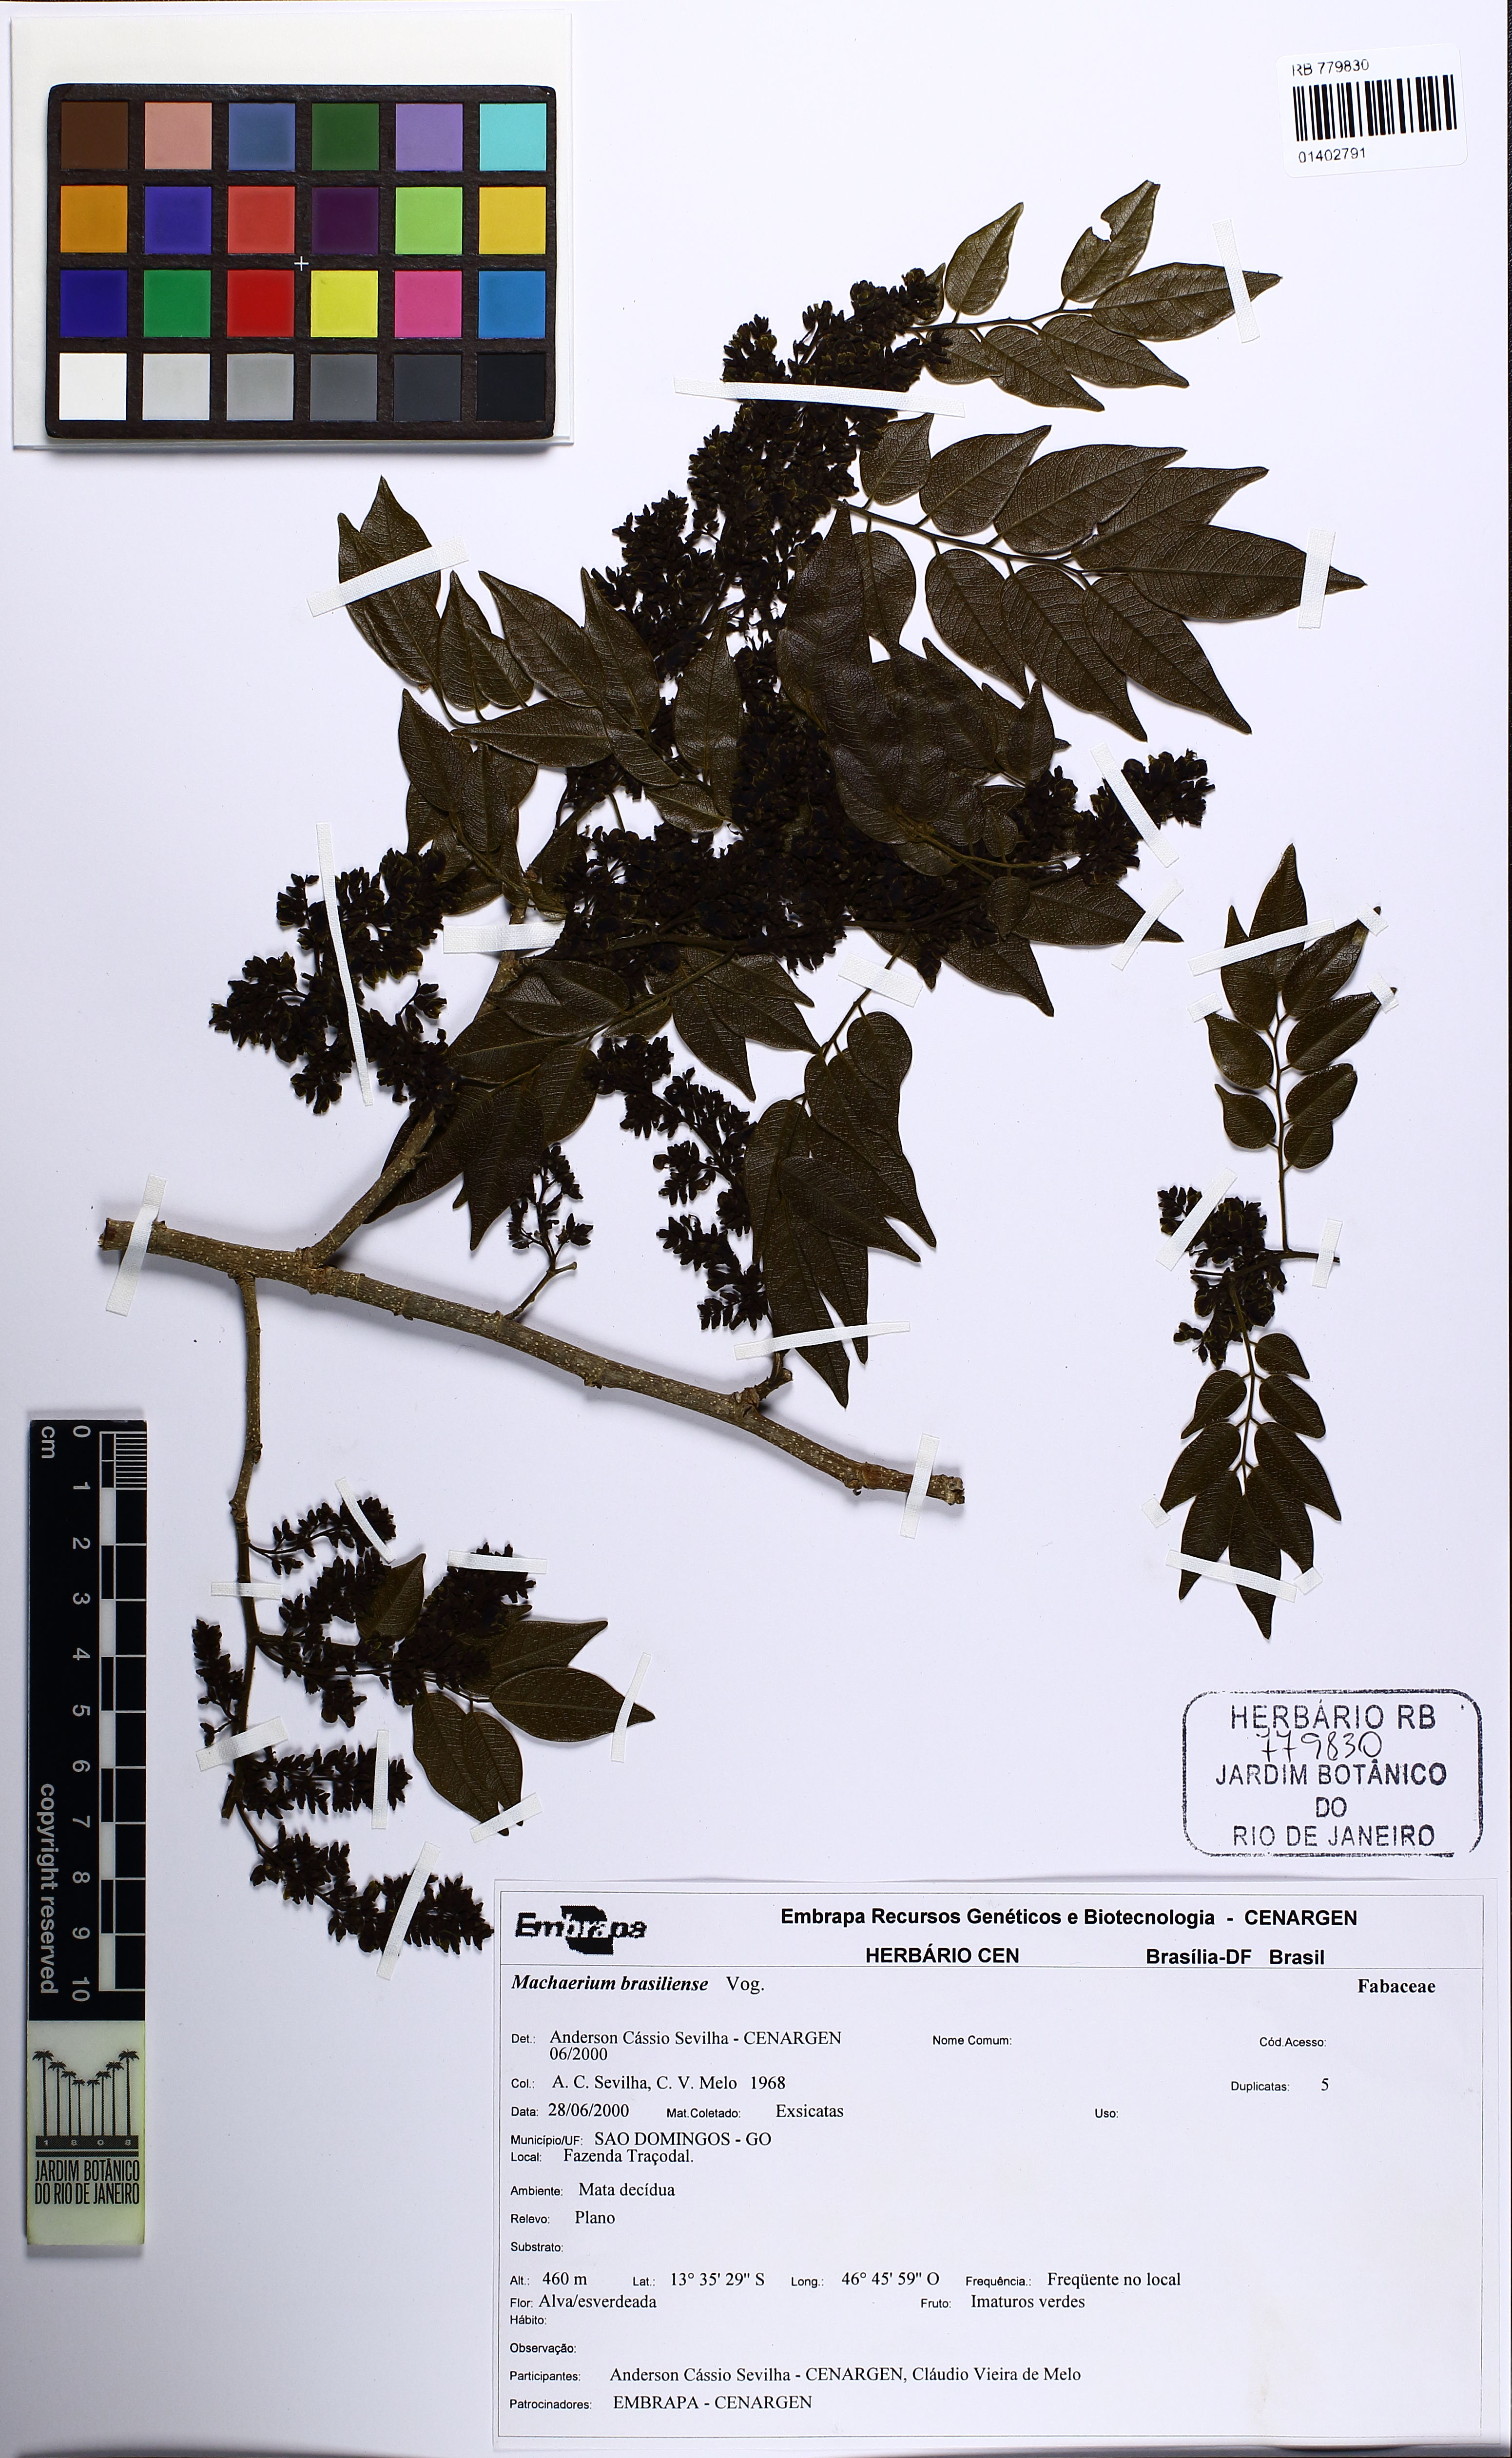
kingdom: Plantae
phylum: Tracheophyta
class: Magnoliopsida
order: Fabales
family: Fabaceae
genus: Machaerium
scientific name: Machaerium brasiliense
